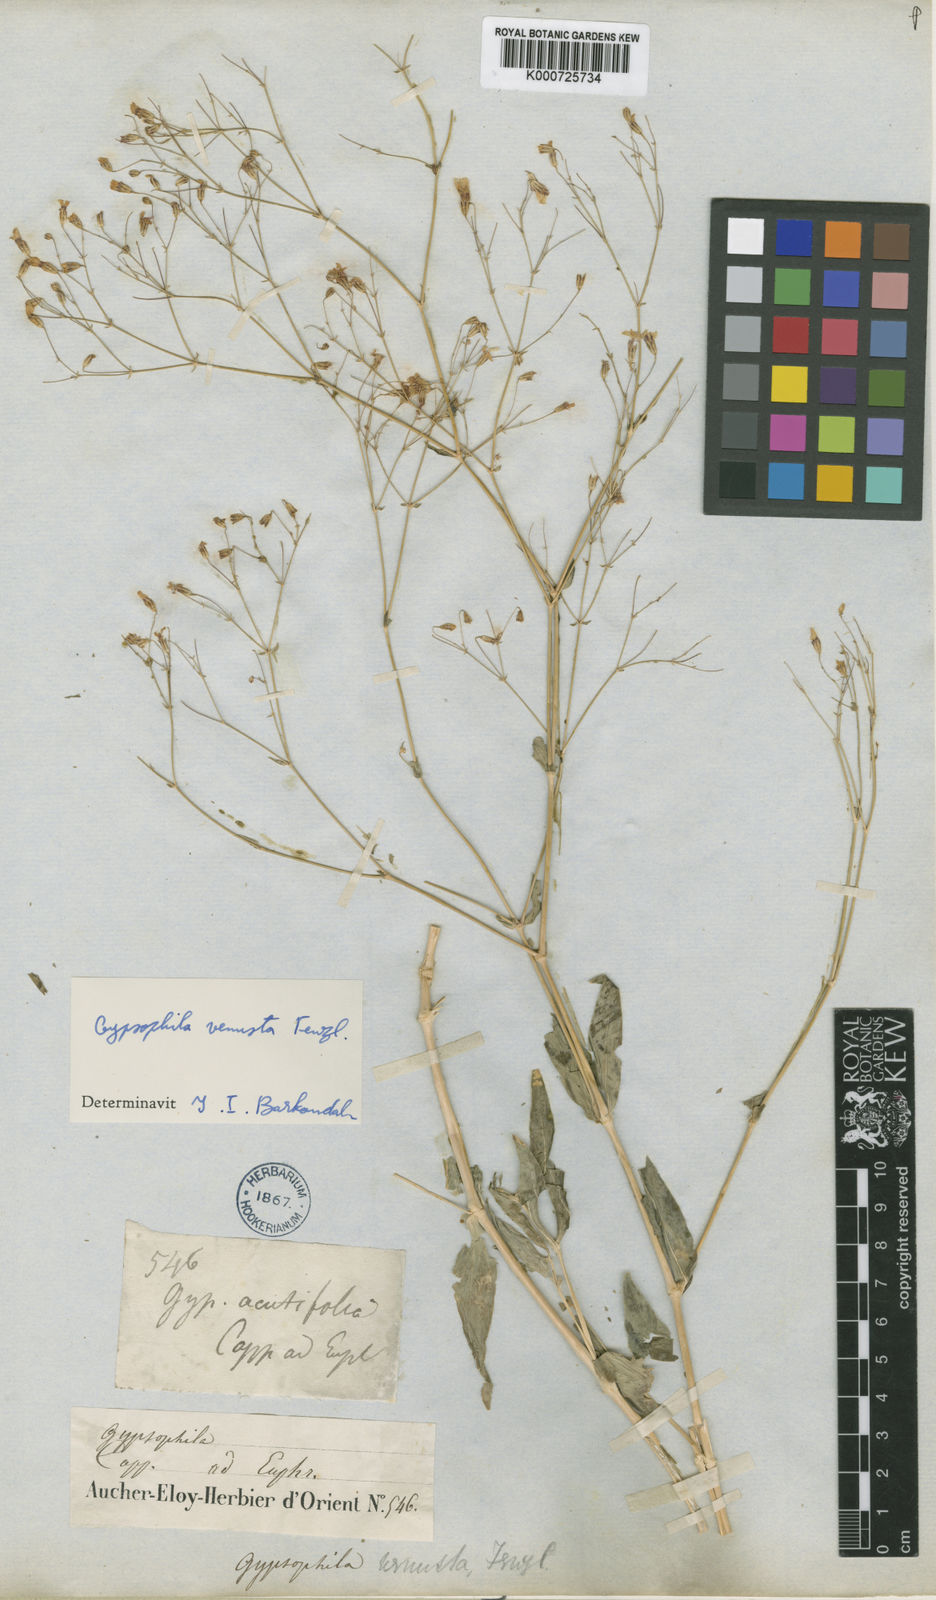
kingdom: Plantae
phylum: Tracheophyta
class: Magnoliopsida
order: Caryophyllales
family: Caryophyllaceae
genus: Gypsophila
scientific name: Gypsophila venusta
